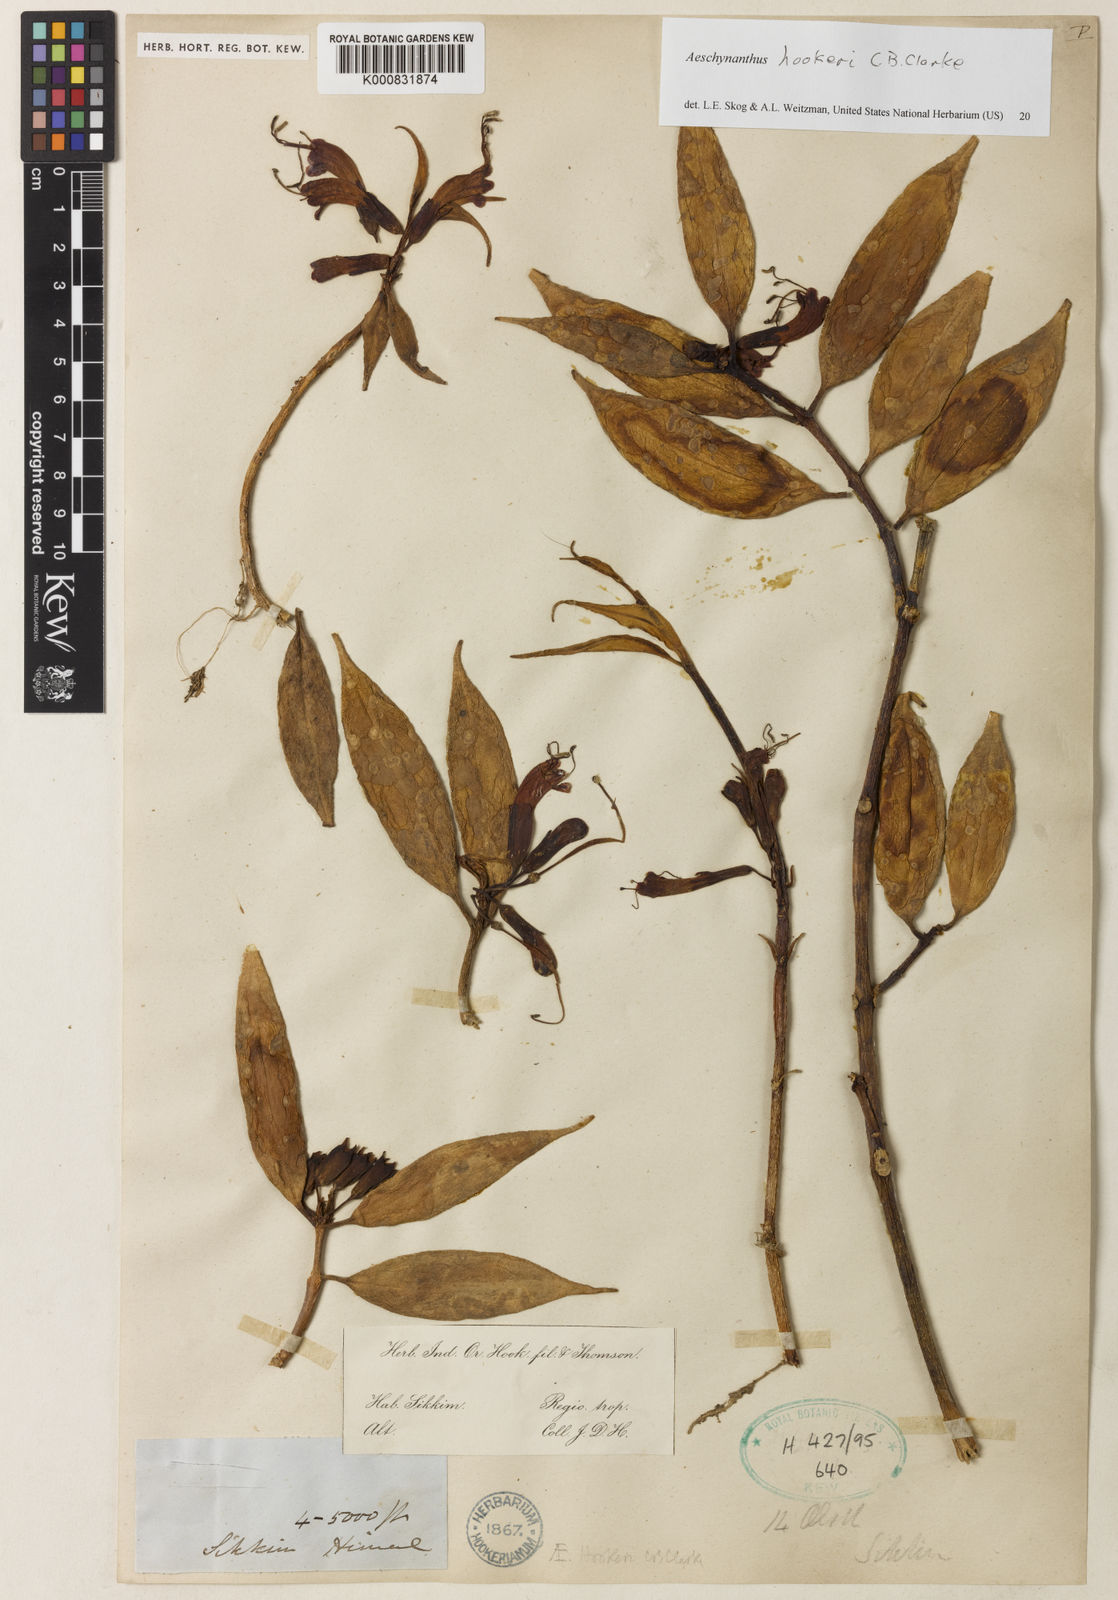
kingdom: Plantae
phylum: Tracheophyta
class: Magnoliopsida
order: Lamiales
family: Gesneriaceae
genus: Aeschynanthus
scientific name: Aeschynanthus hookeri
